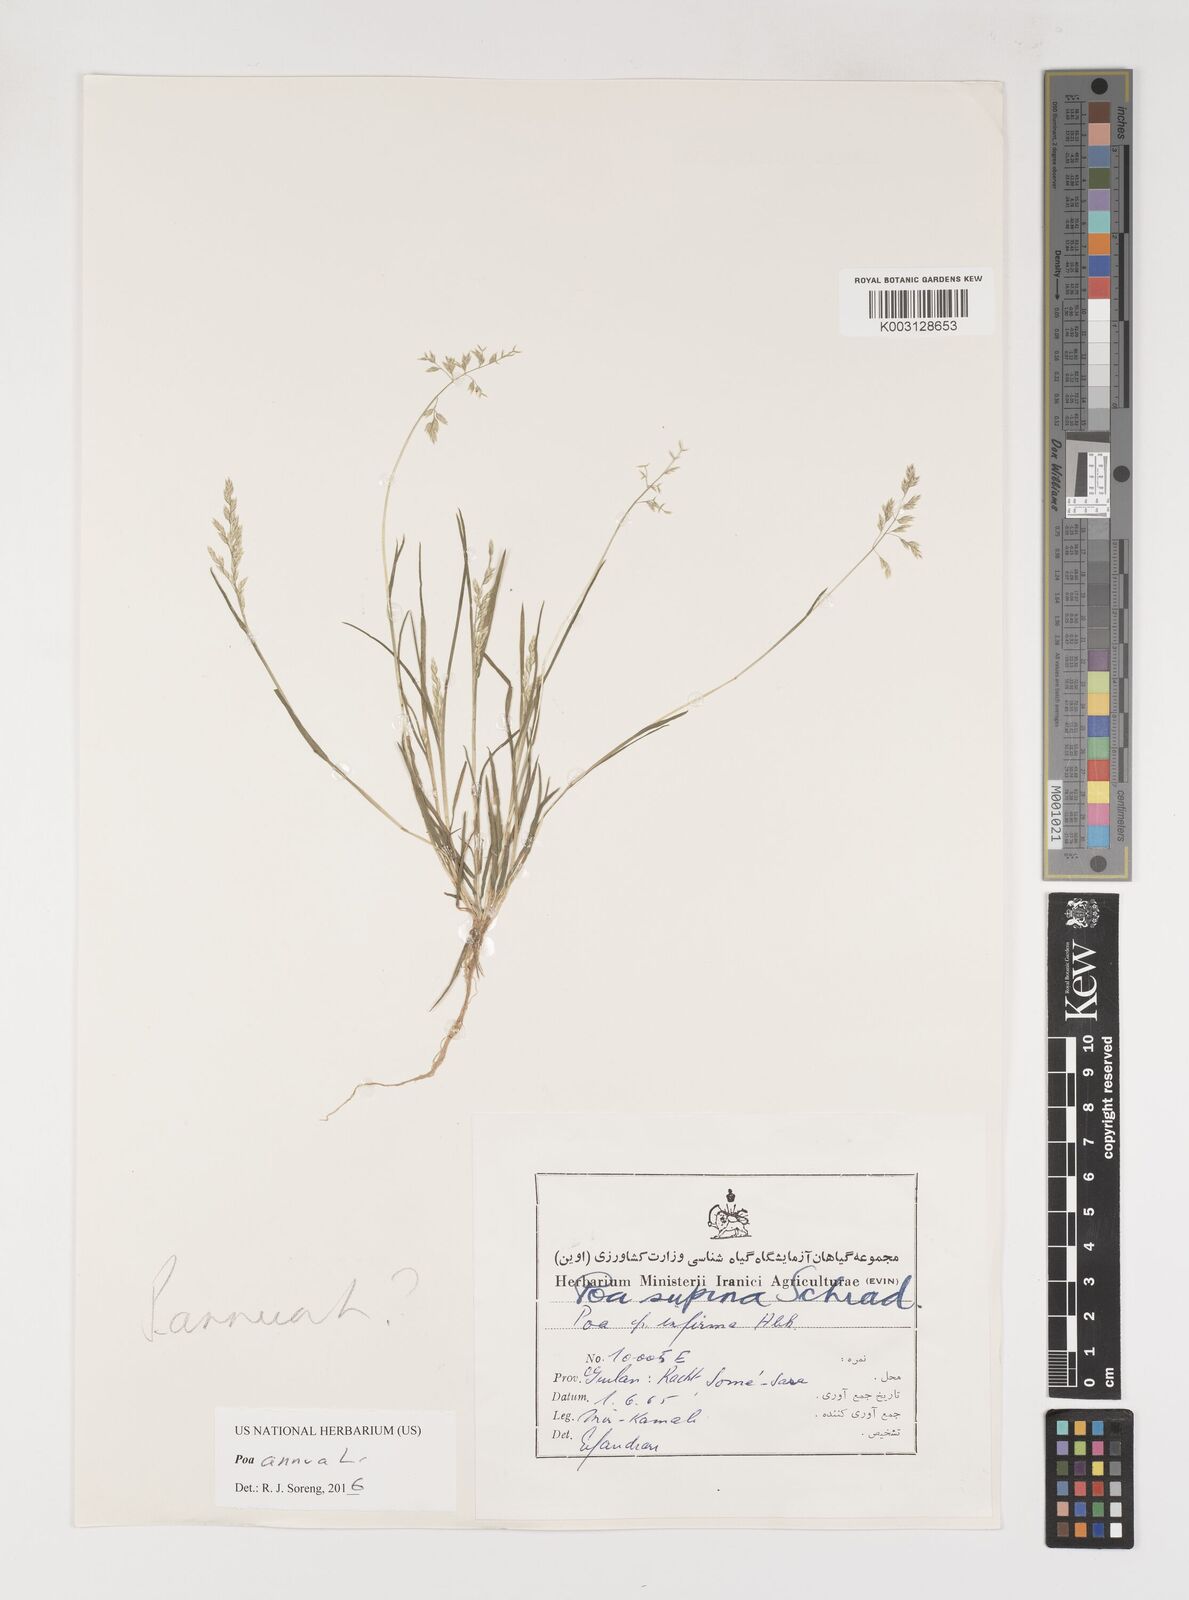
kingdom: Plantae
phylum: Tracheophyta
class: Liliopsida
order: Poales
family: Poaceae
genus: Poa
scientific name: Poa annua
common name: Annual bluegrass
